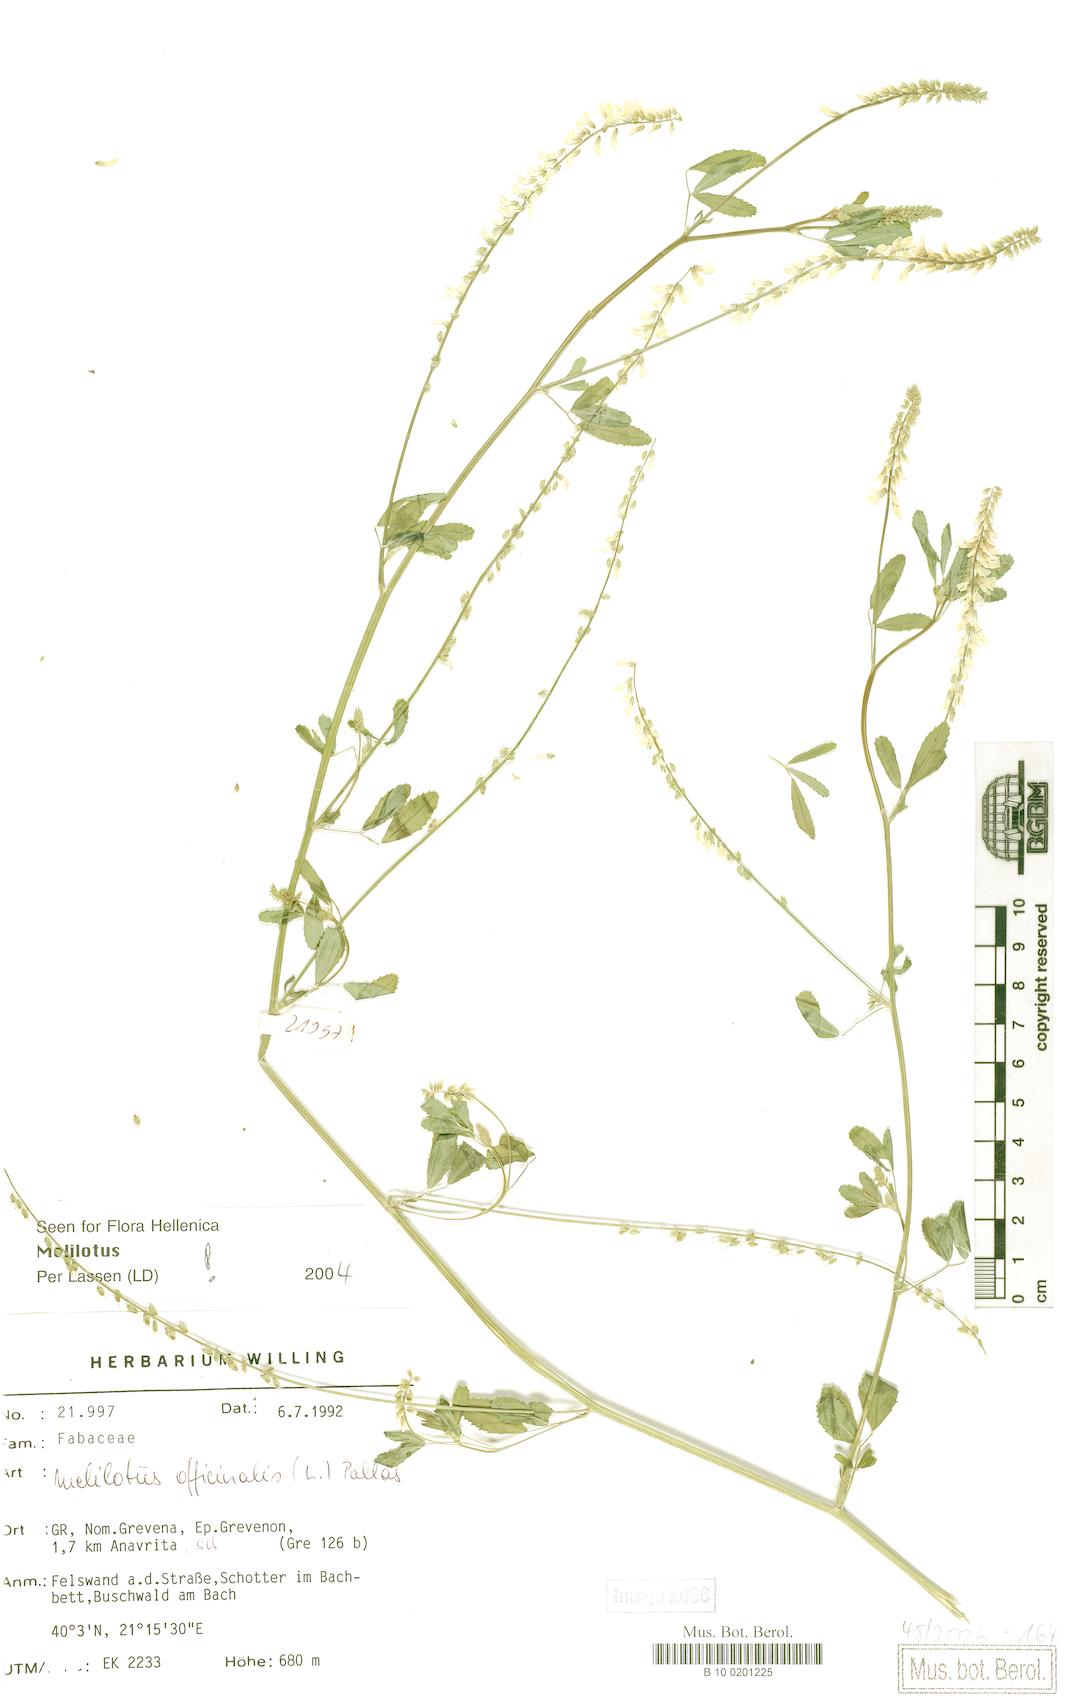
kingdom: Plantae
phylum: Tracheophyta
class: Magnoliopsida
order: Fabales
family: Fabaceae
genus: Melilotus
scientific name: Melilotus officinalis
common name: Sweetclover
